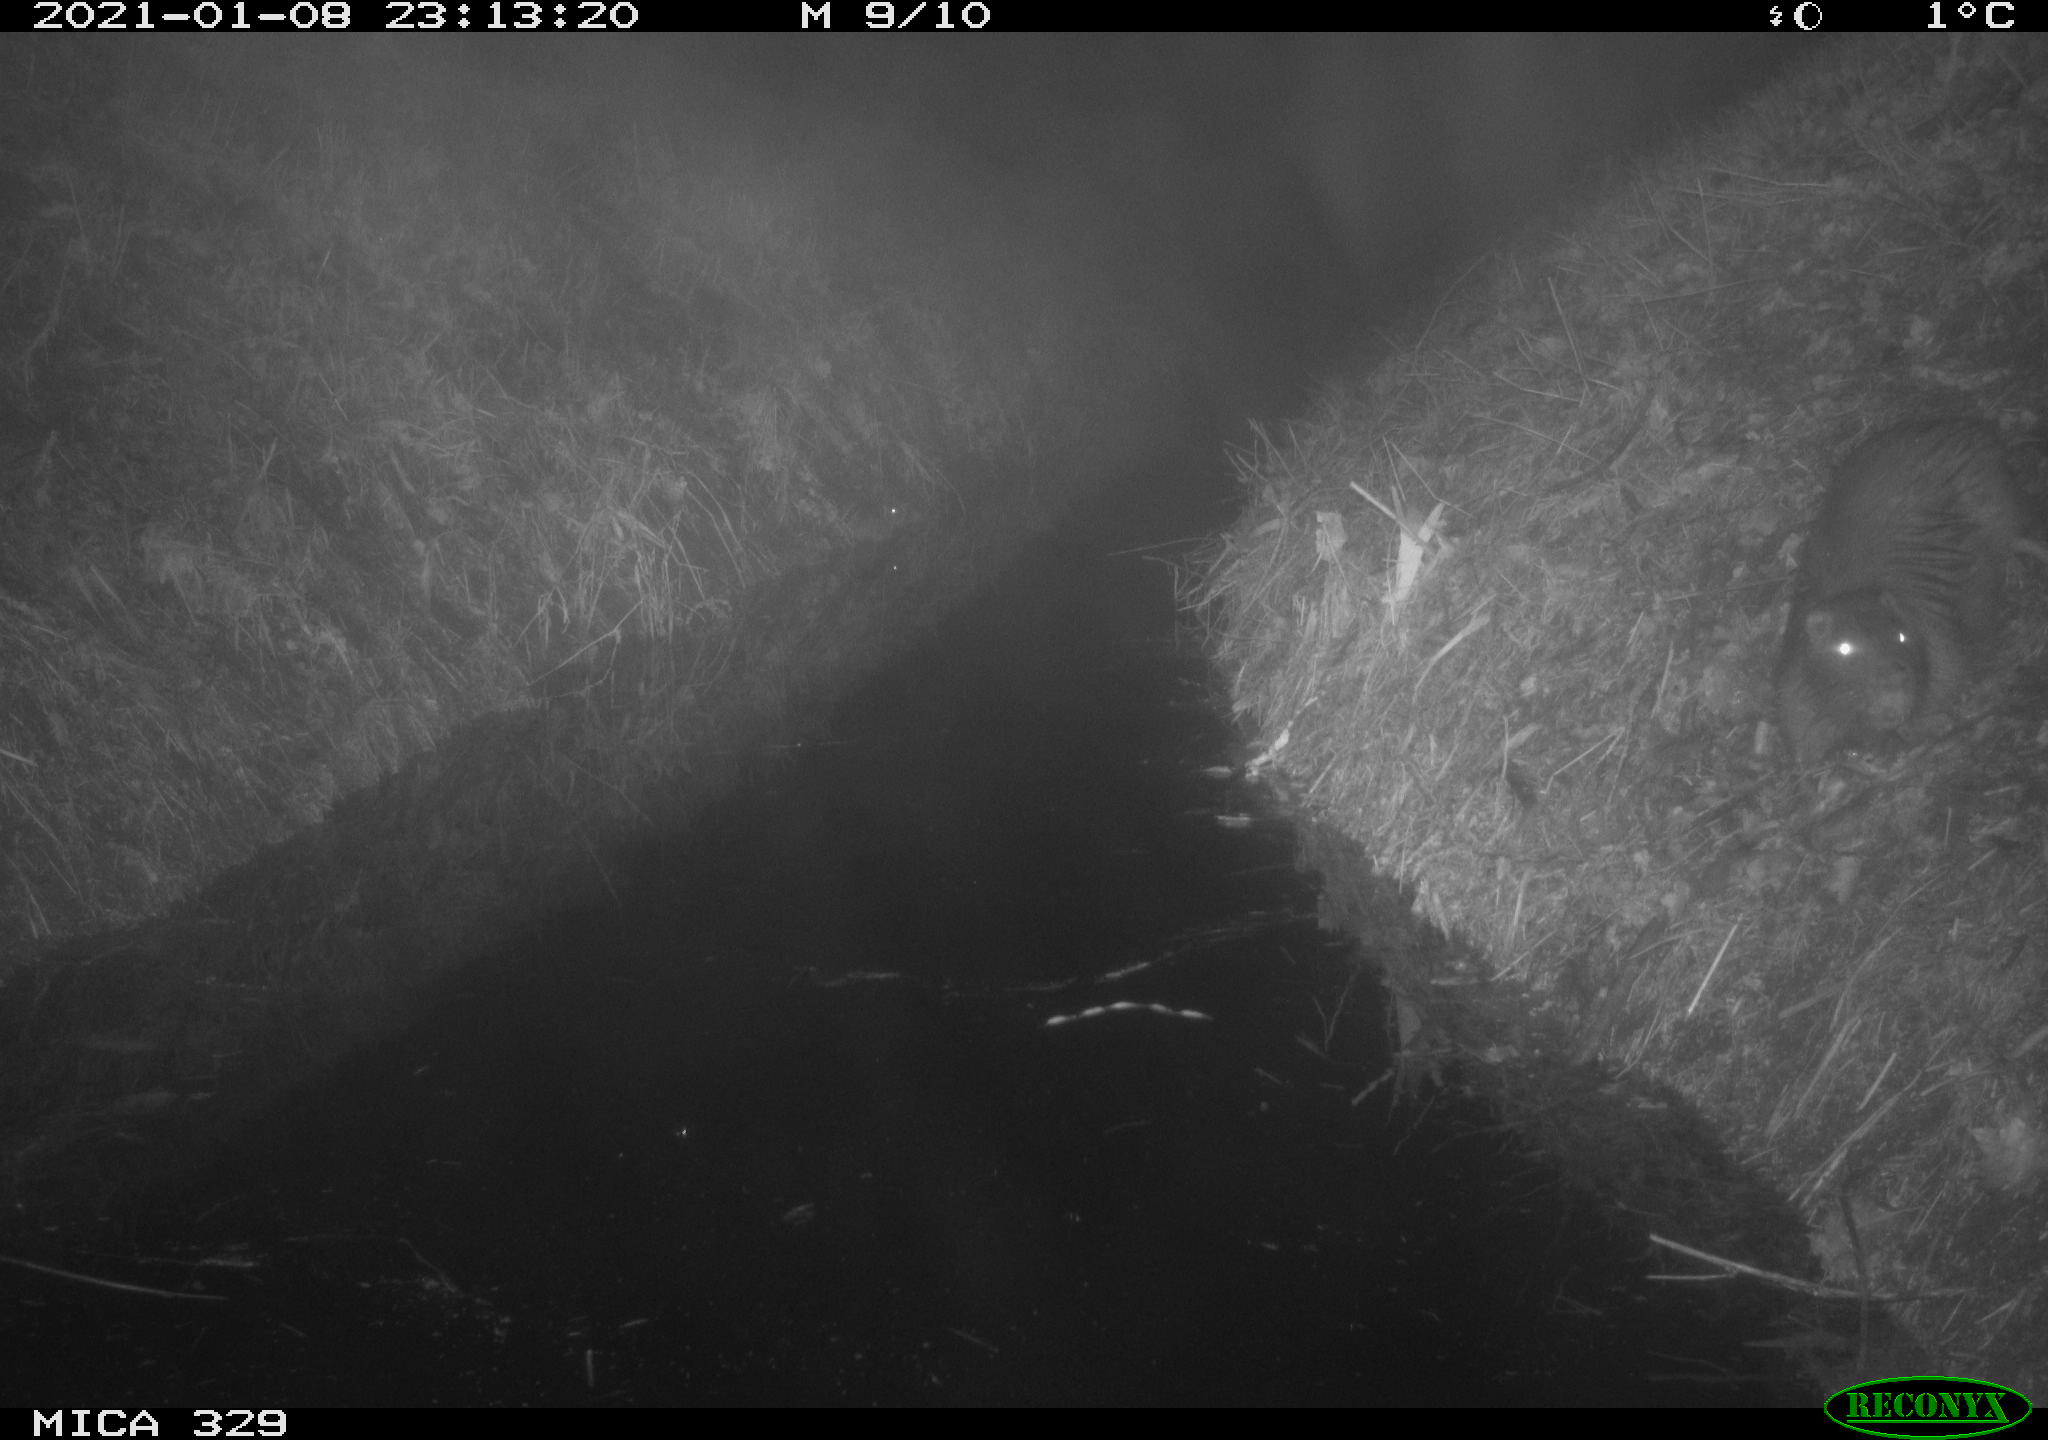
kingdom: Animalia
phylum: Chordata
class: Mammalia
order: Rodentia
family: Myocastoridae
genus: Myocastor
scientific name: Myocastor coypus
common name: Coypu
